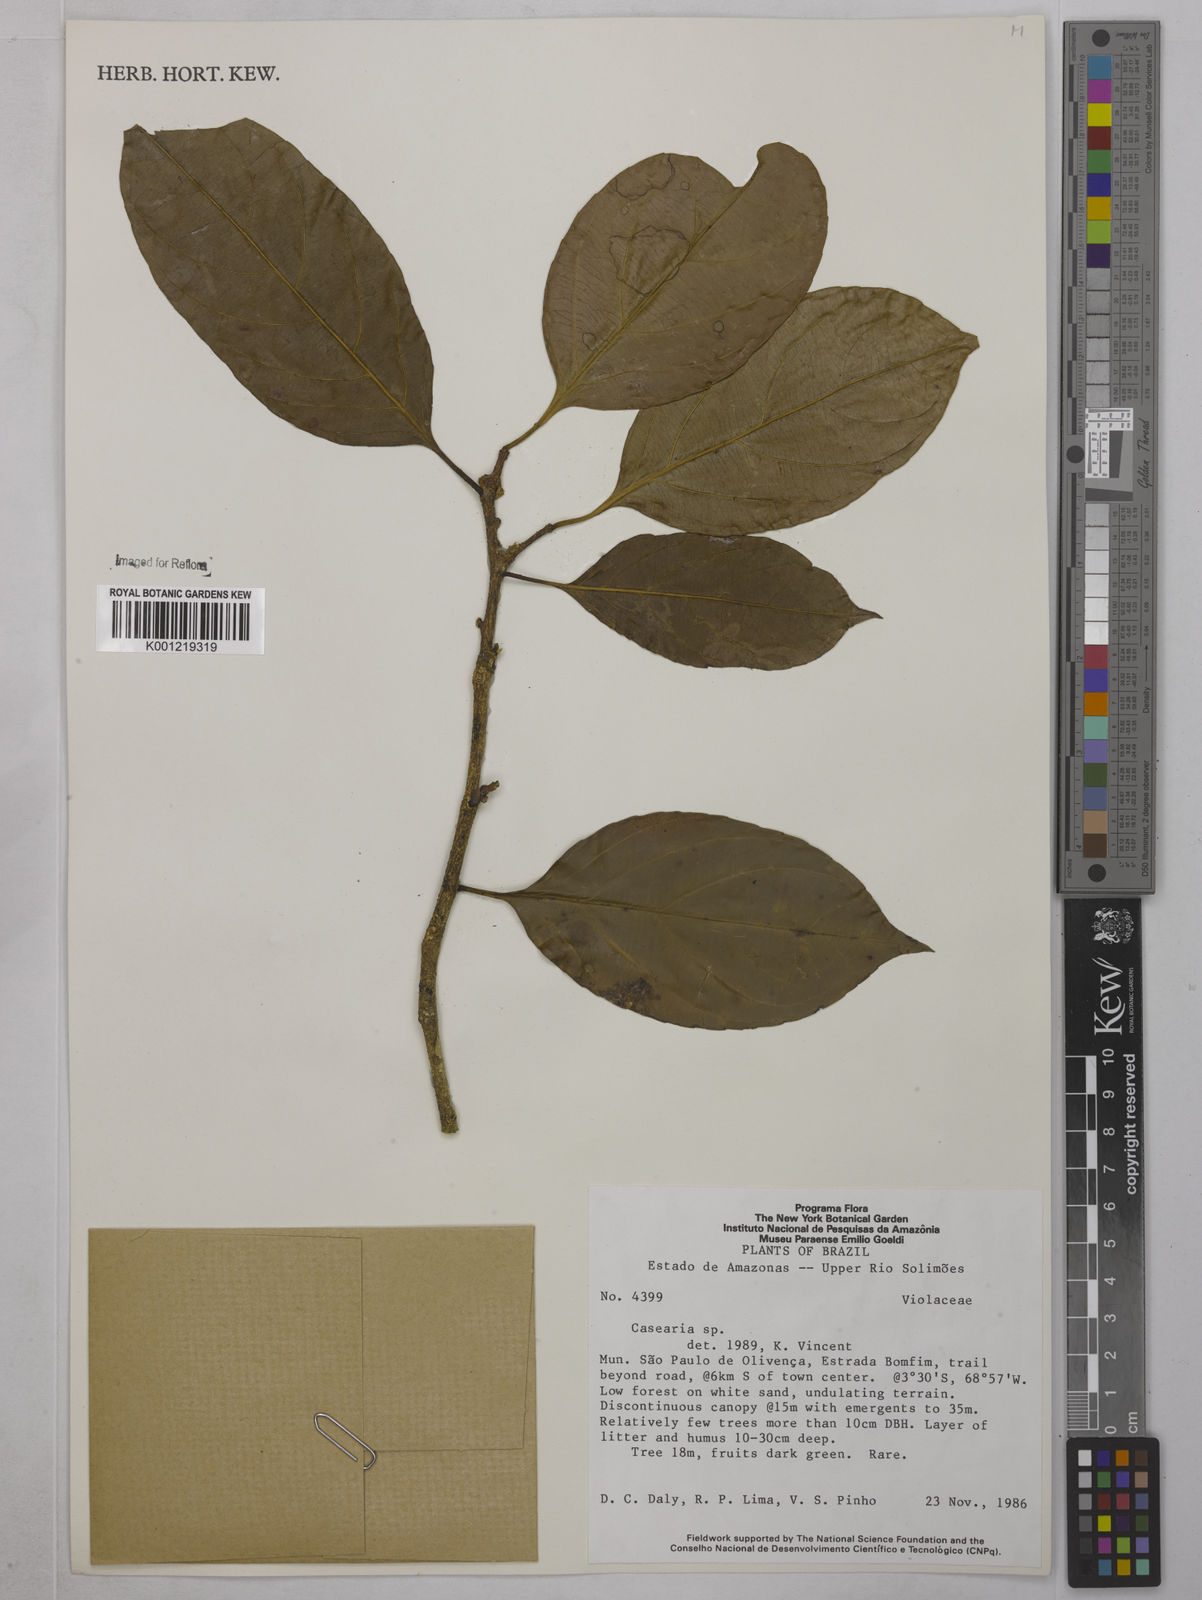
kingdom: Plantae
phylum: Tracheophyta
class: Magnoliopsida
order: Malpighiales
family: Salicaceae
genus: Casearia
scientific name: Casearia
